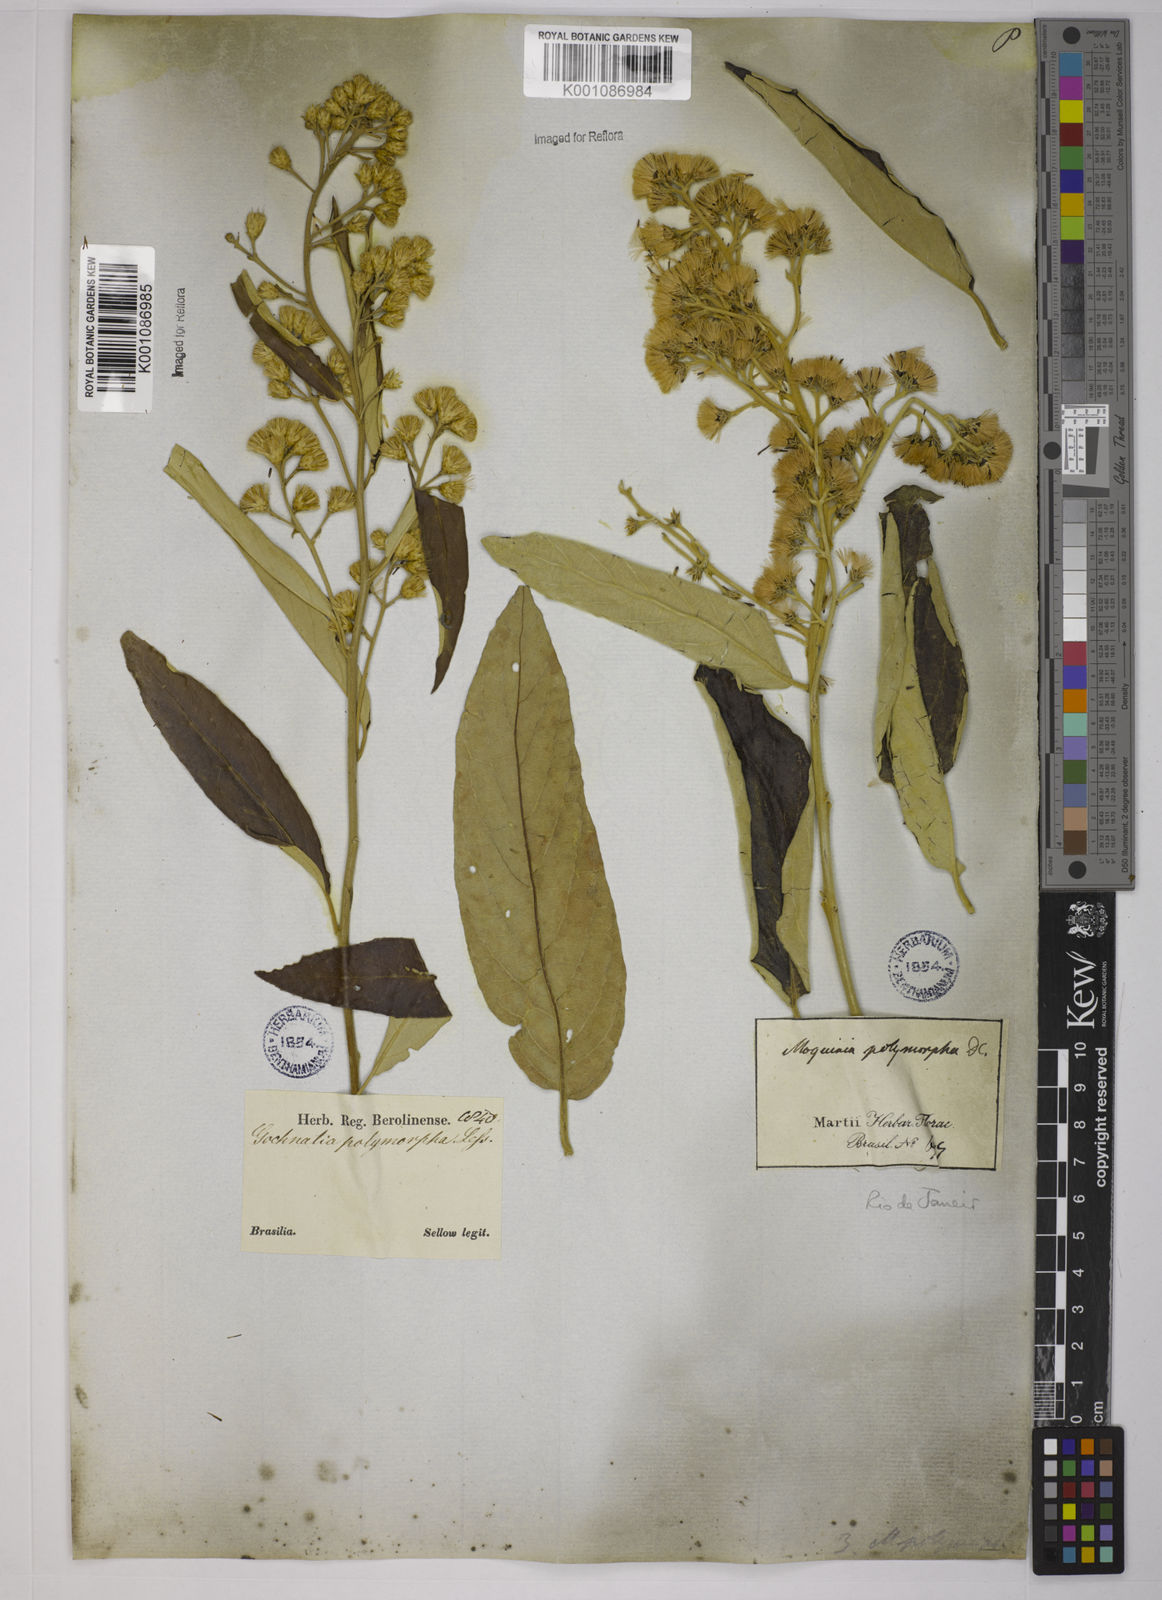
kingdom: Plantae
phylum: Tracheophyta
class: Magnoliopsida
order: Asterales
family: Asteraceae
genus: Moquiniastrum
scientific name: Moquiniastrum polymorphum
